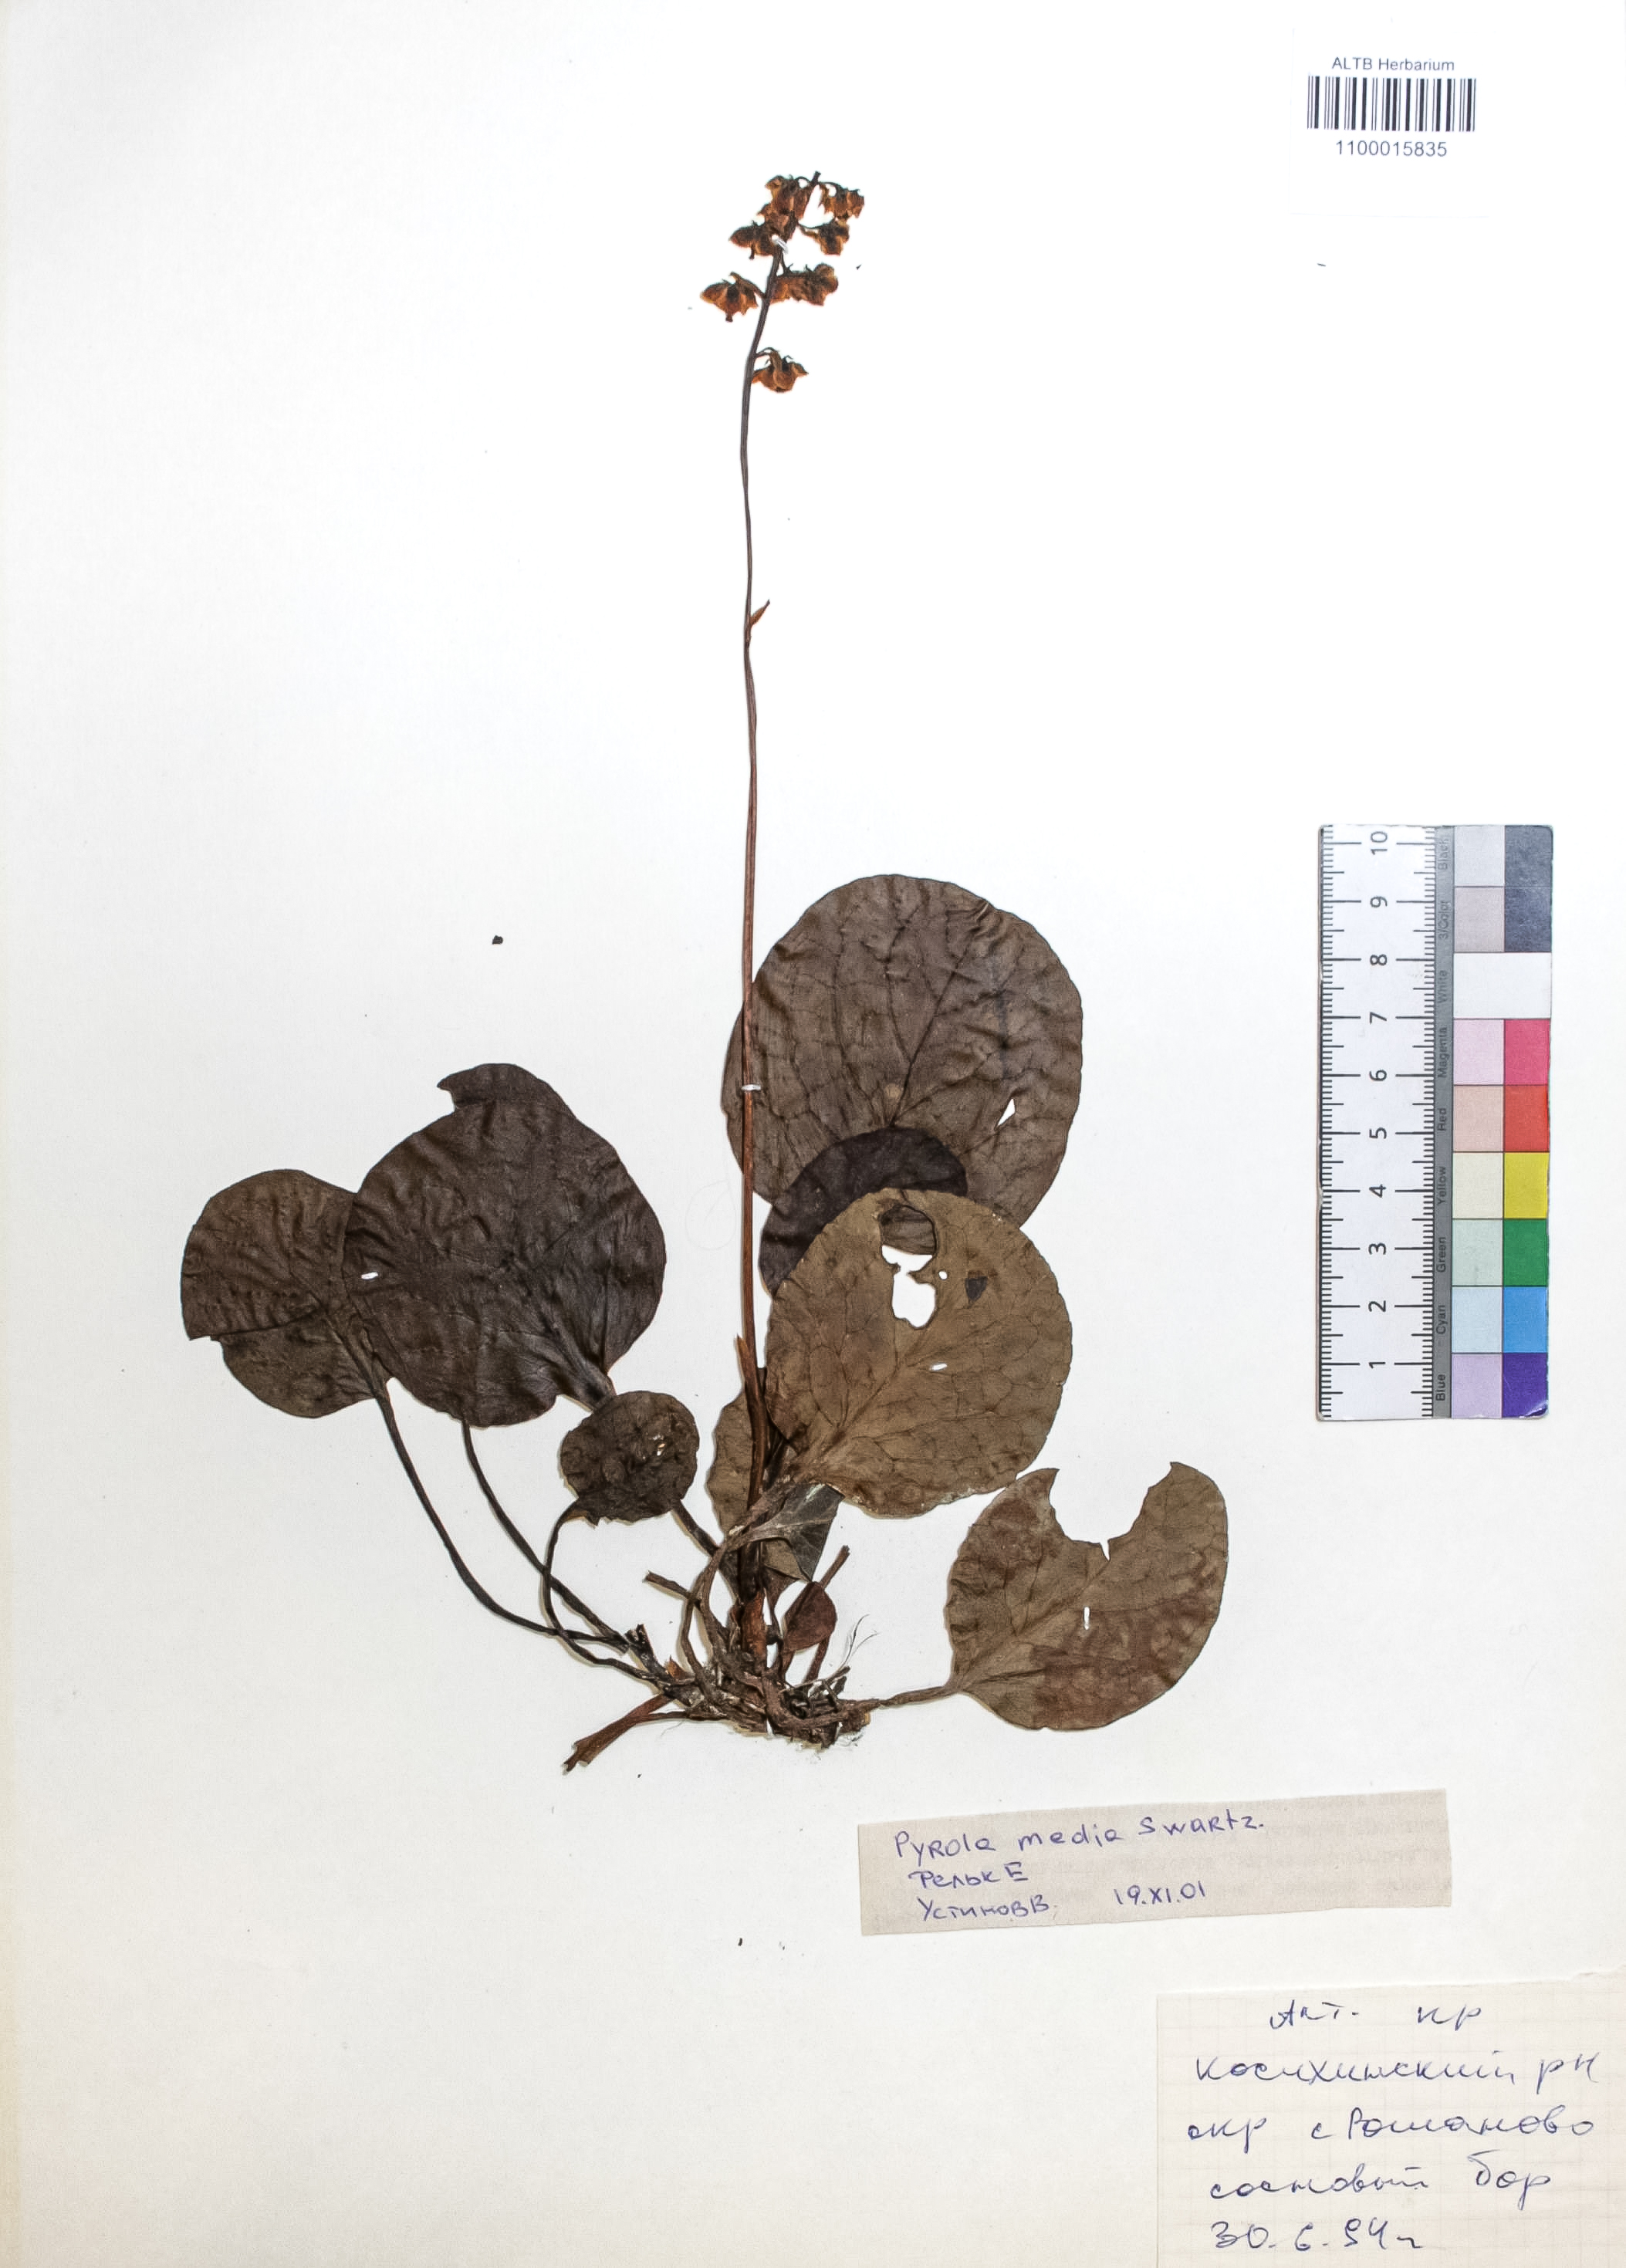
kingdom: Plantae
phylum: Tracheophyta
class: Magnoliopsida
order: Ericales
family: Ericaceae
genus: Pyrola
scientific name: Pyrola media
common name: Intermediate wintergreen
